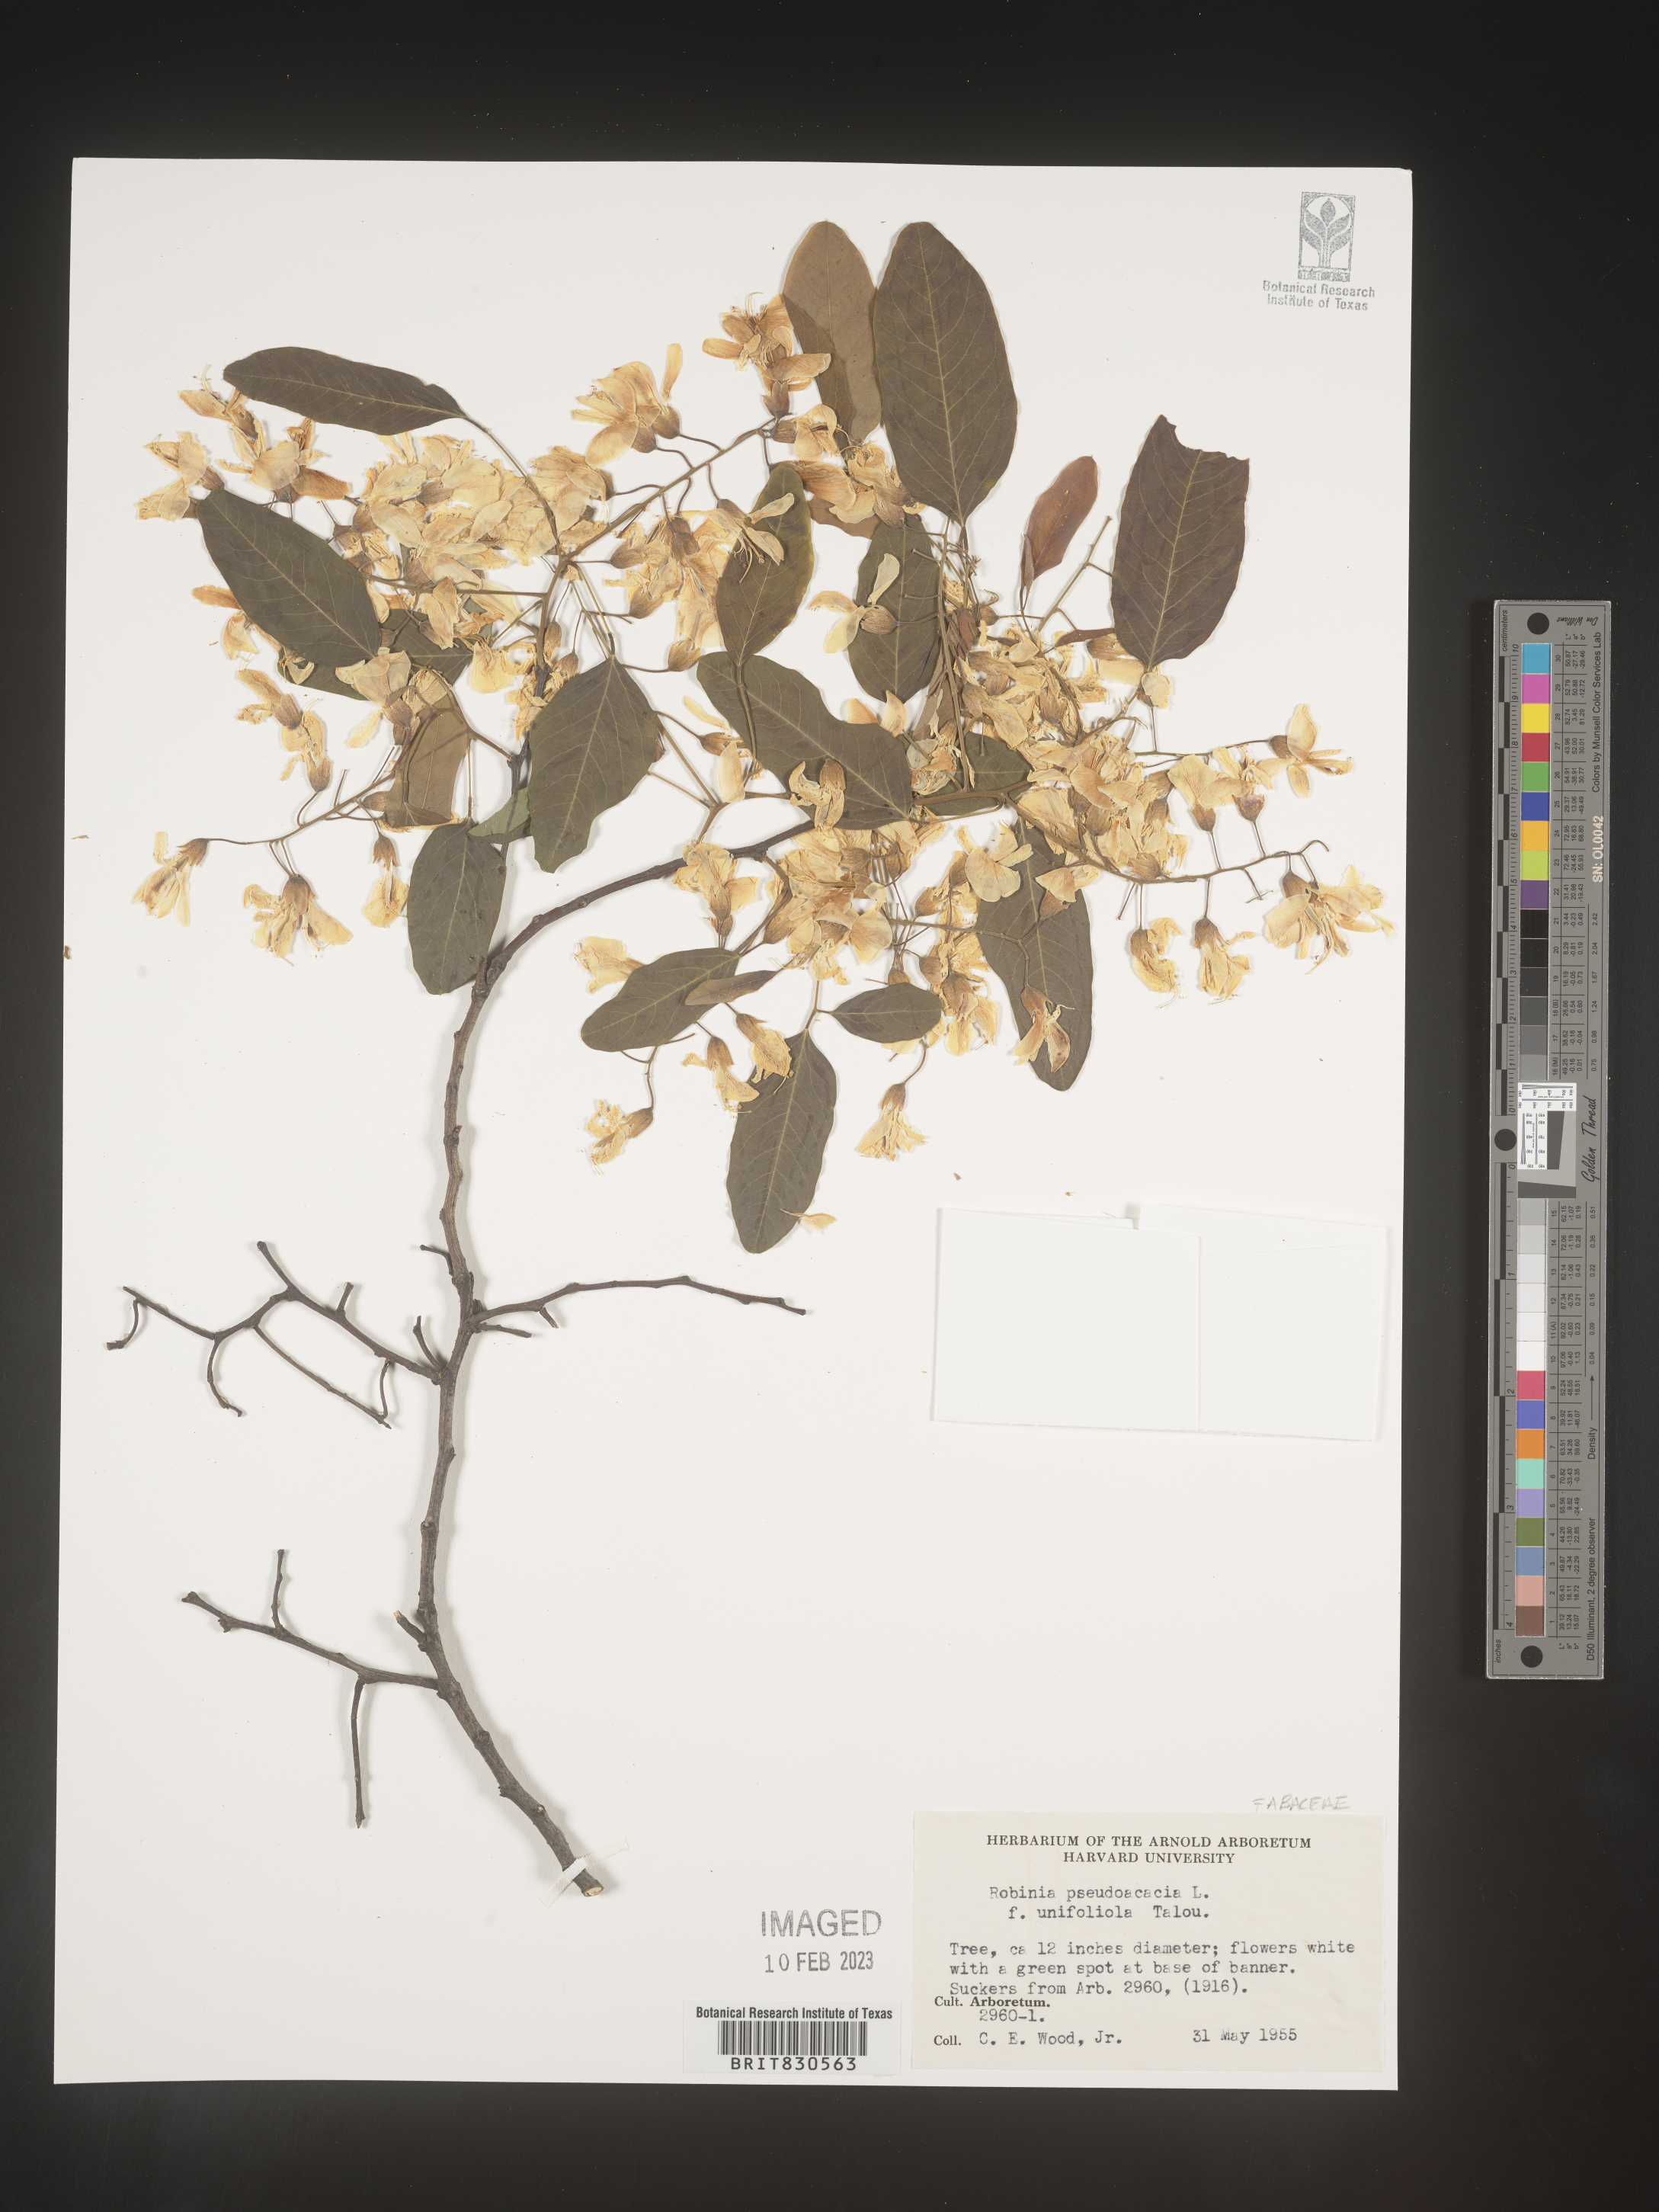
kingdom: Plantae
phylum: Tracheophyta
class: Magnoliopsida
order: Fabales
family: Fabaceae
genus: Robinia
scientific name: Robinia pseudoacacia
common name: Black locust
